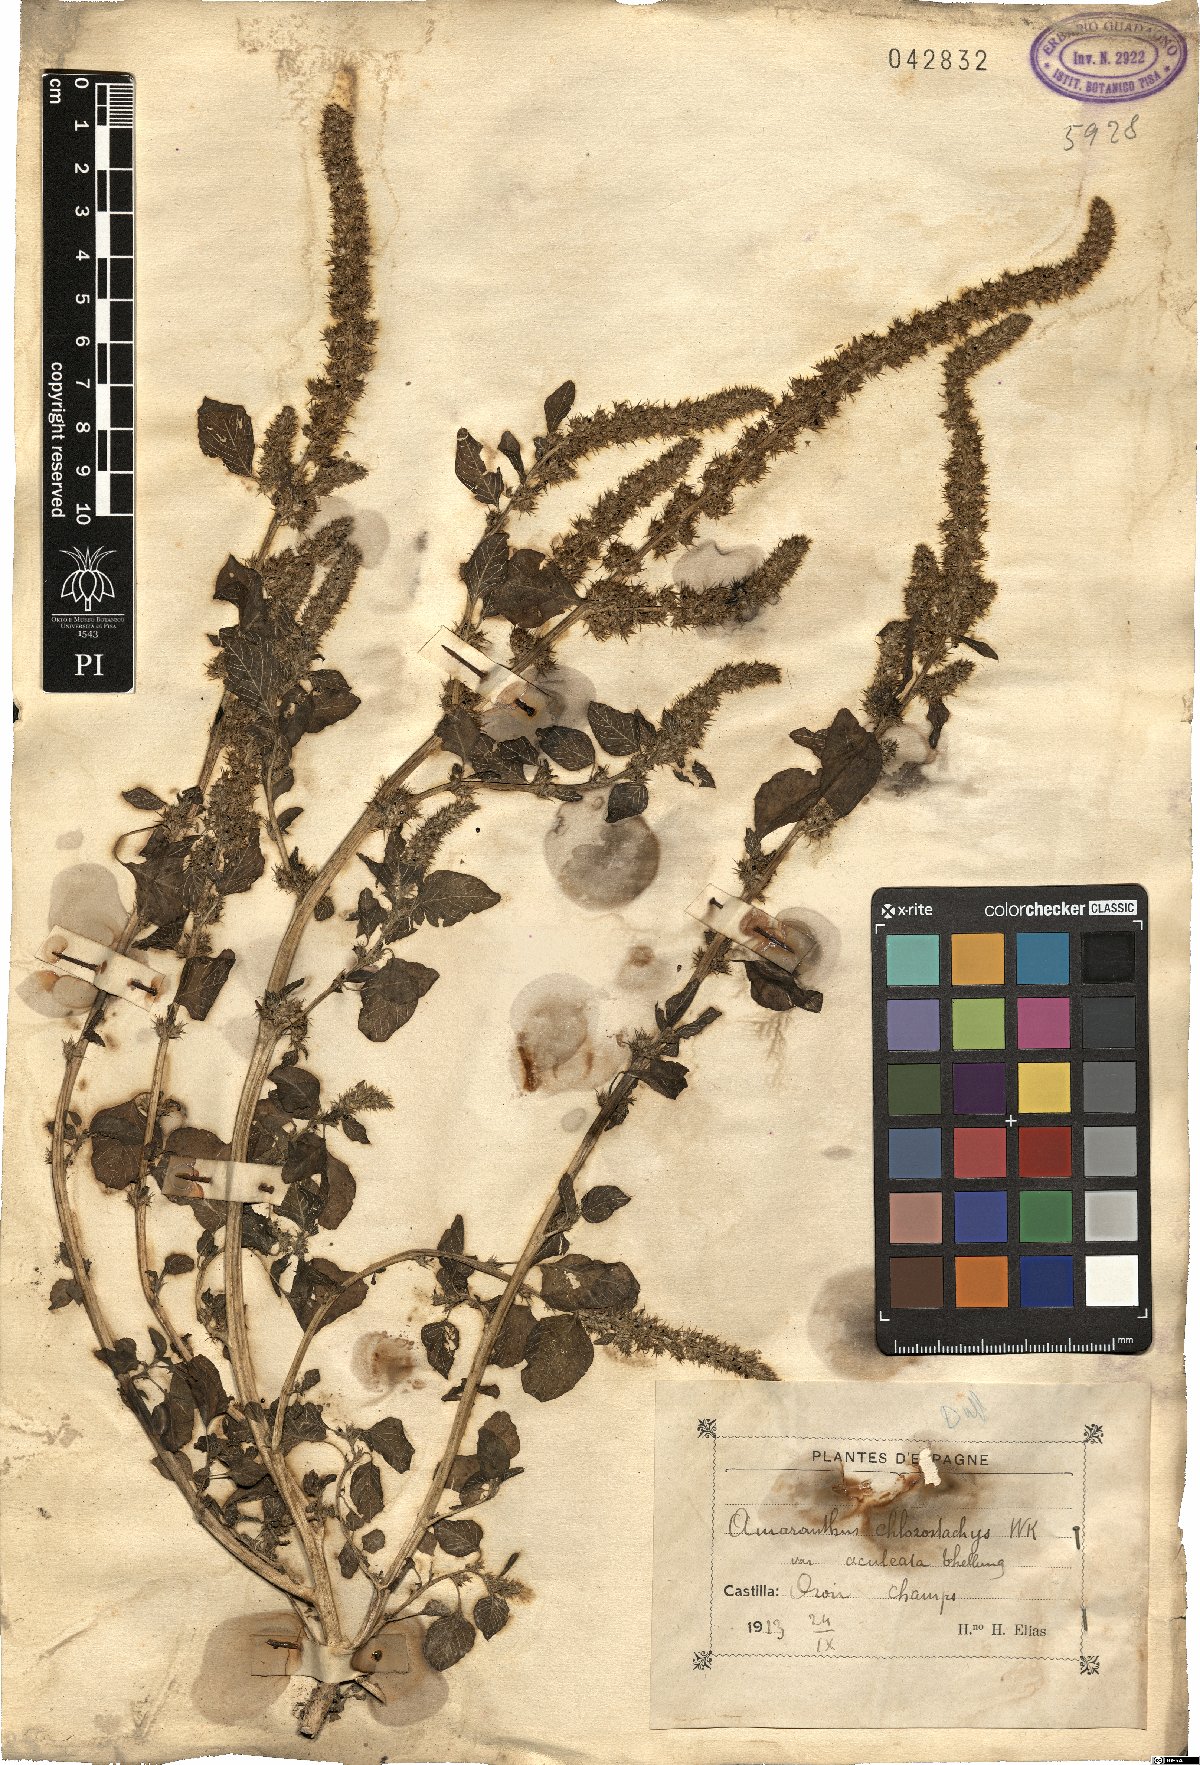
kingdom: Plantae
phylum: Tracheophyta
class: Magnoliopsida
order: Caryophyllales
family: Amaranthaceae
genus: Amaranthus
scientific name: Amaranthus
